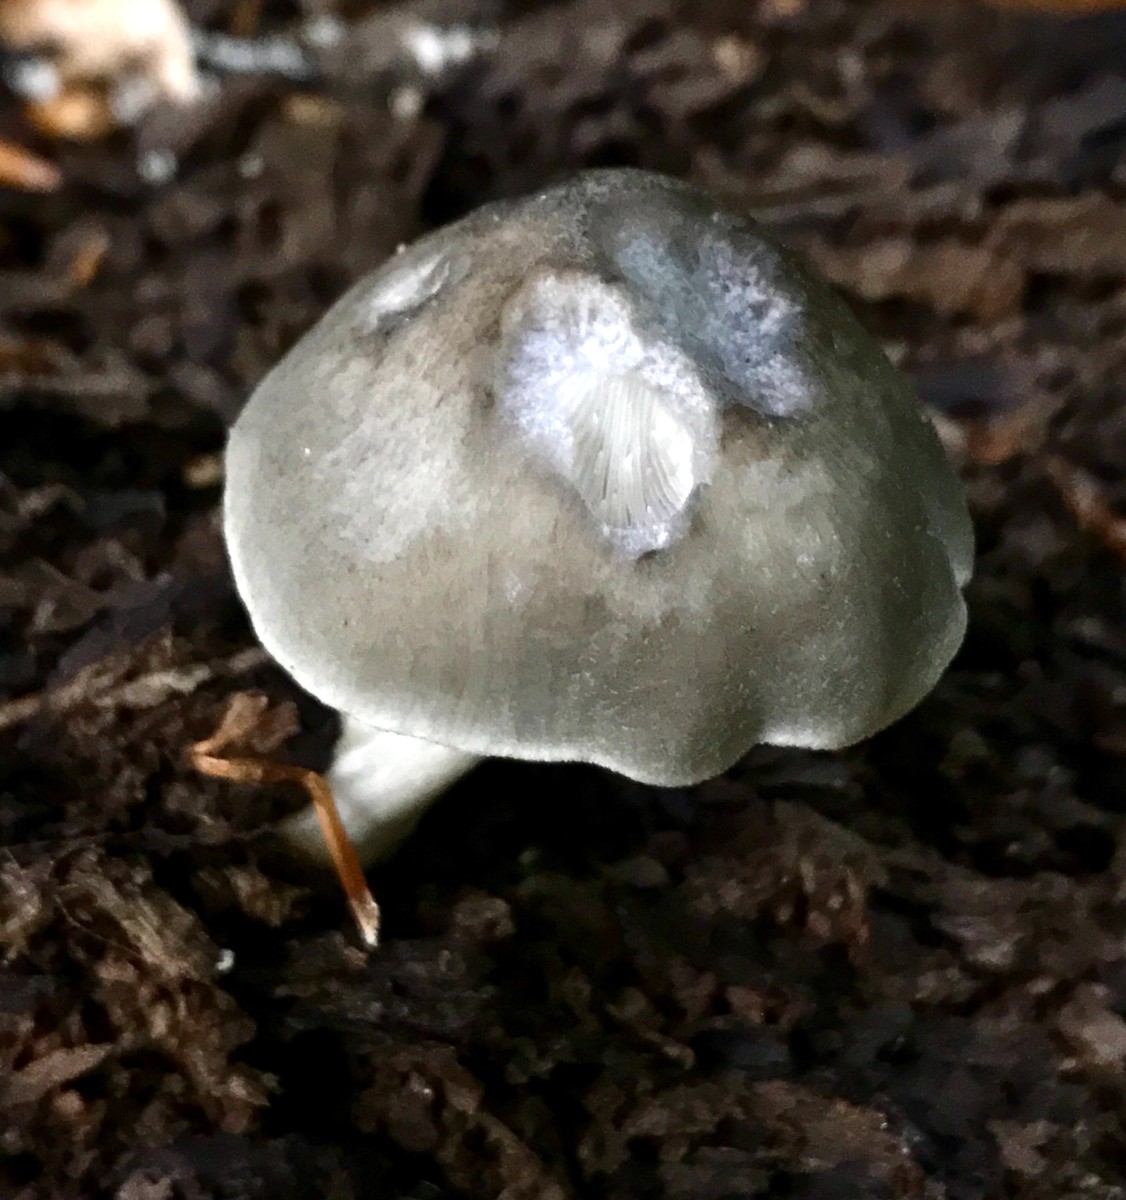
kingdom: Fungi
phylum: Basidiomycota
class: Agaricomycetes
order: Agaricales
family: Pluteaceae
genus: Pluteus
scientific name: Pluteus salicinus
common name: stiv skærmhat
